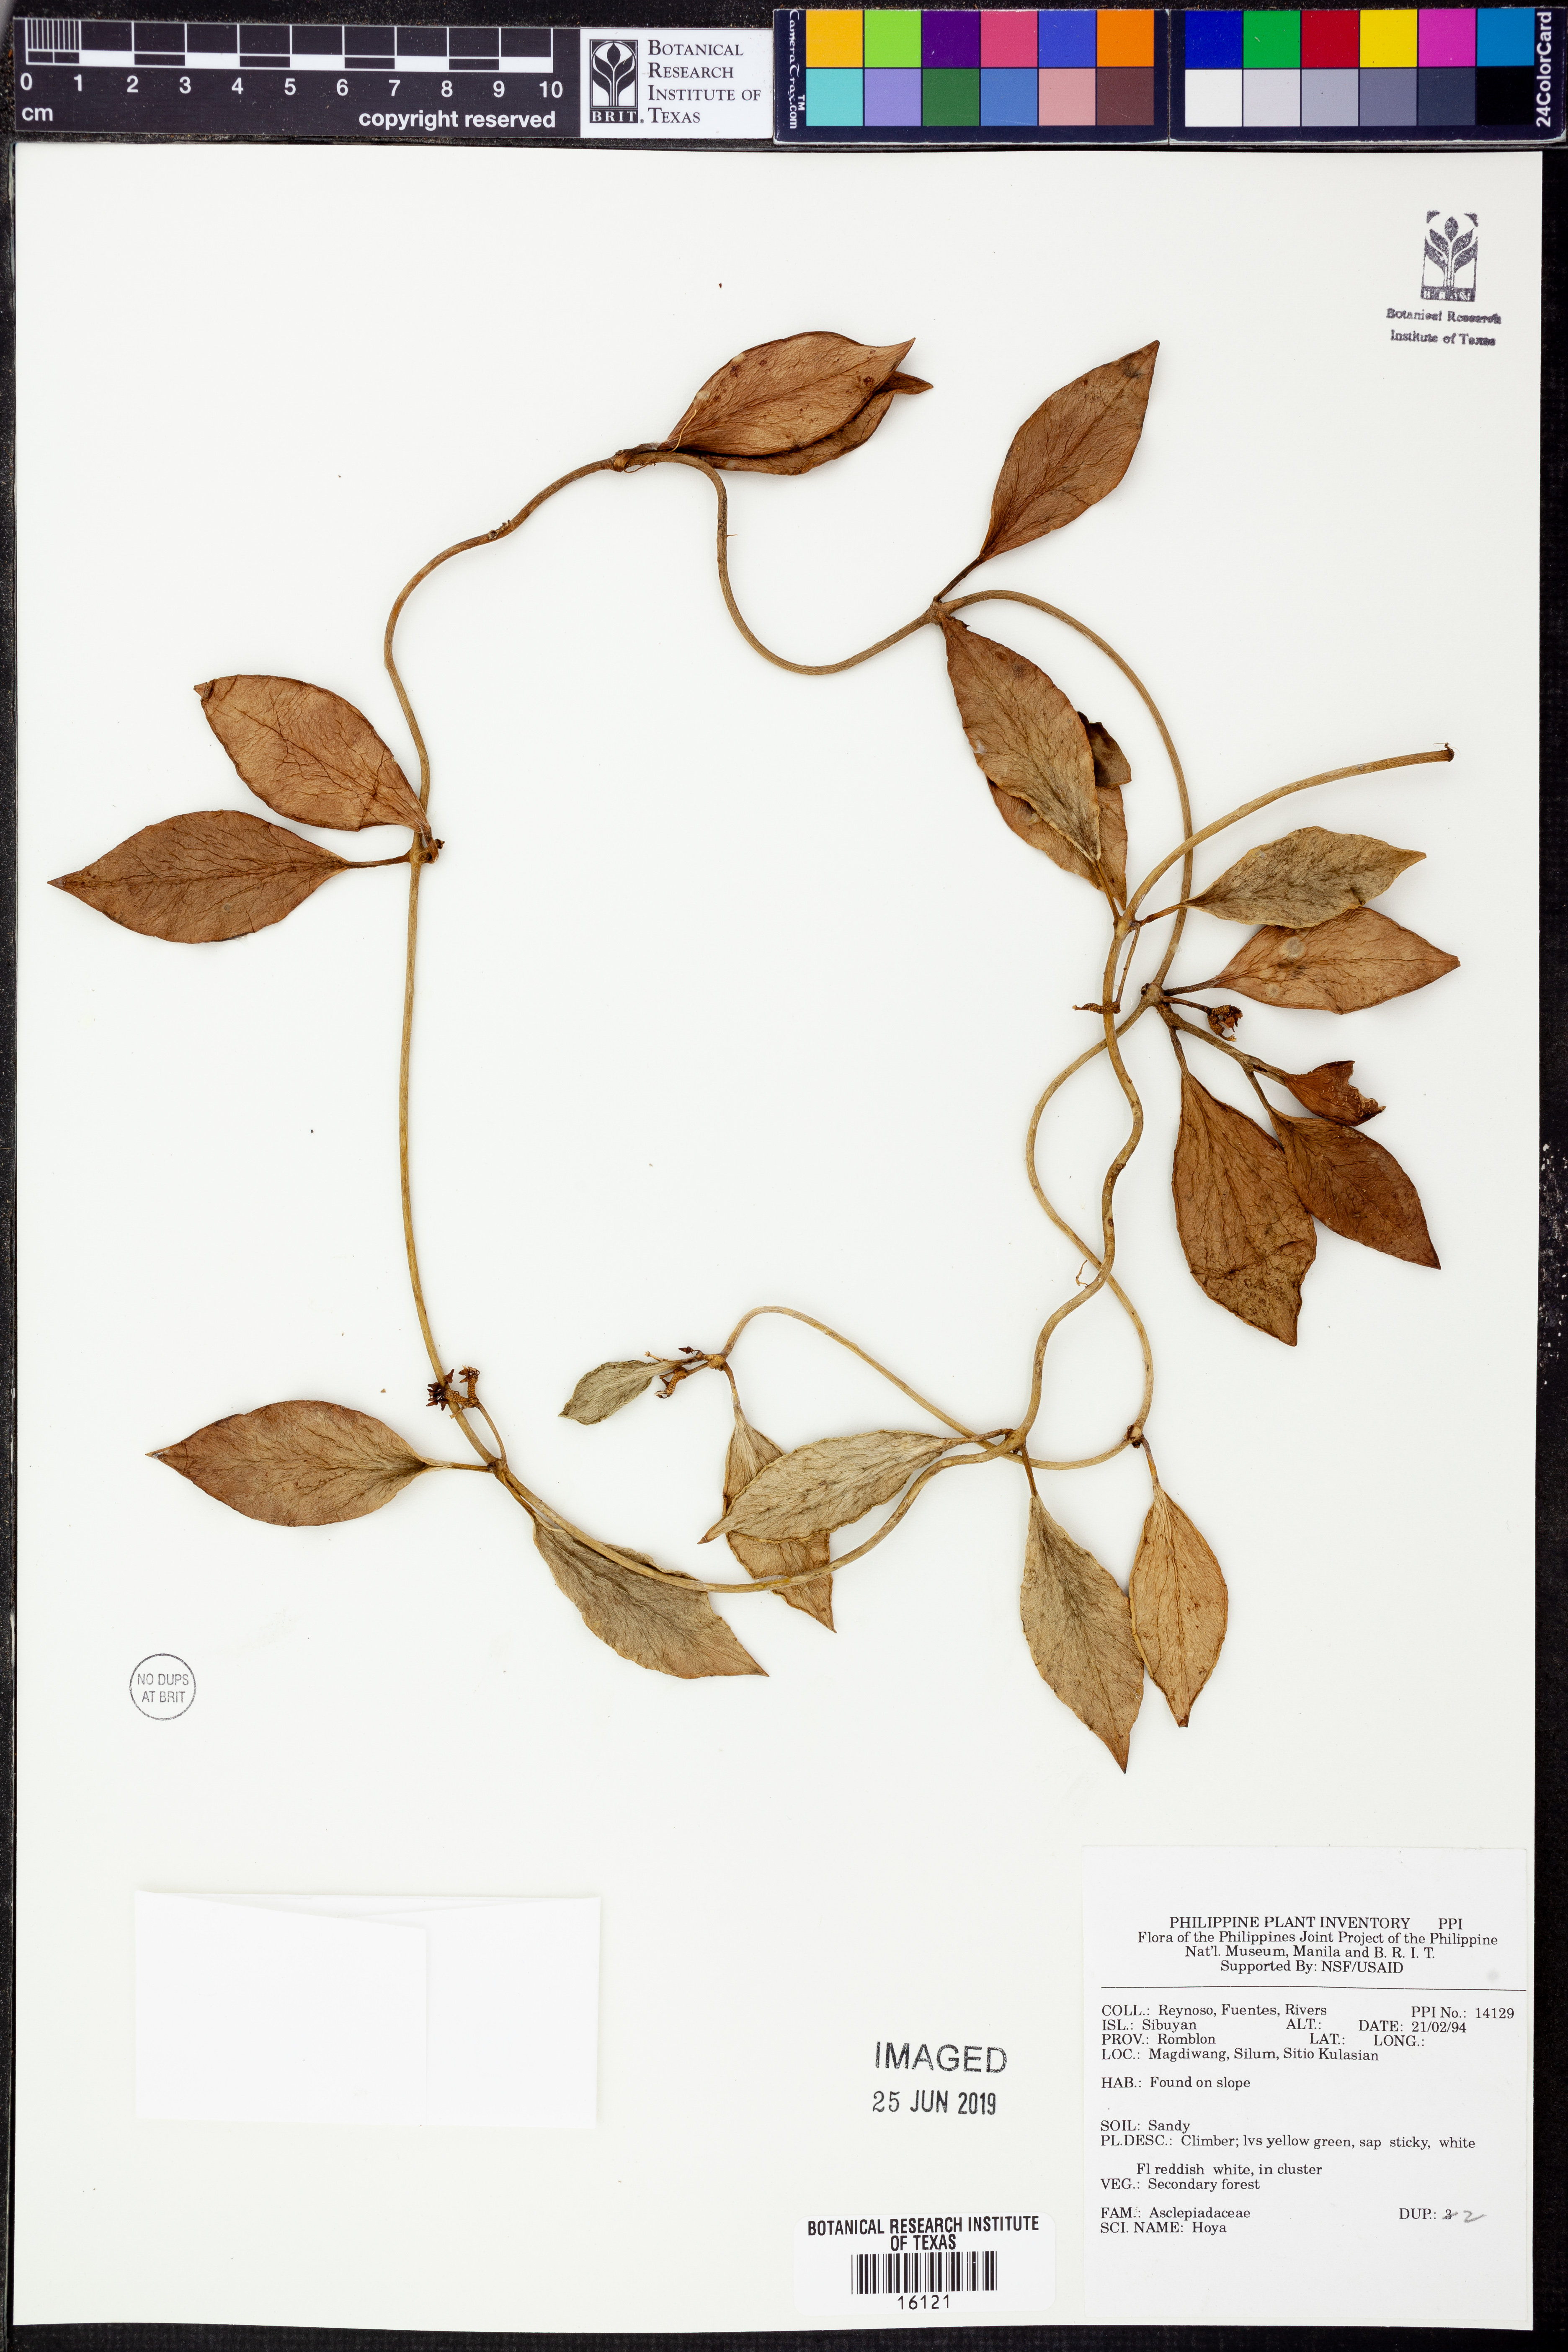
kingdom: Plantae
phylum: Tracheophyta
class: Magnoliopsida
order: Gentianales
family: Apocynaceae
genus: Hoya
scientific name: Hoya
